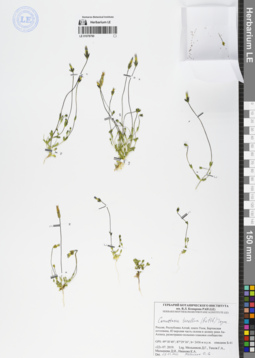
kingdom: Plantae
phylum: Tracheophyta
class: Magnoliopsida
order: Gentianales
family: Gentianaceae
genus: Comastoma
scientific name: Comastoma tenellum
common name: Dane's dwarf gentian
